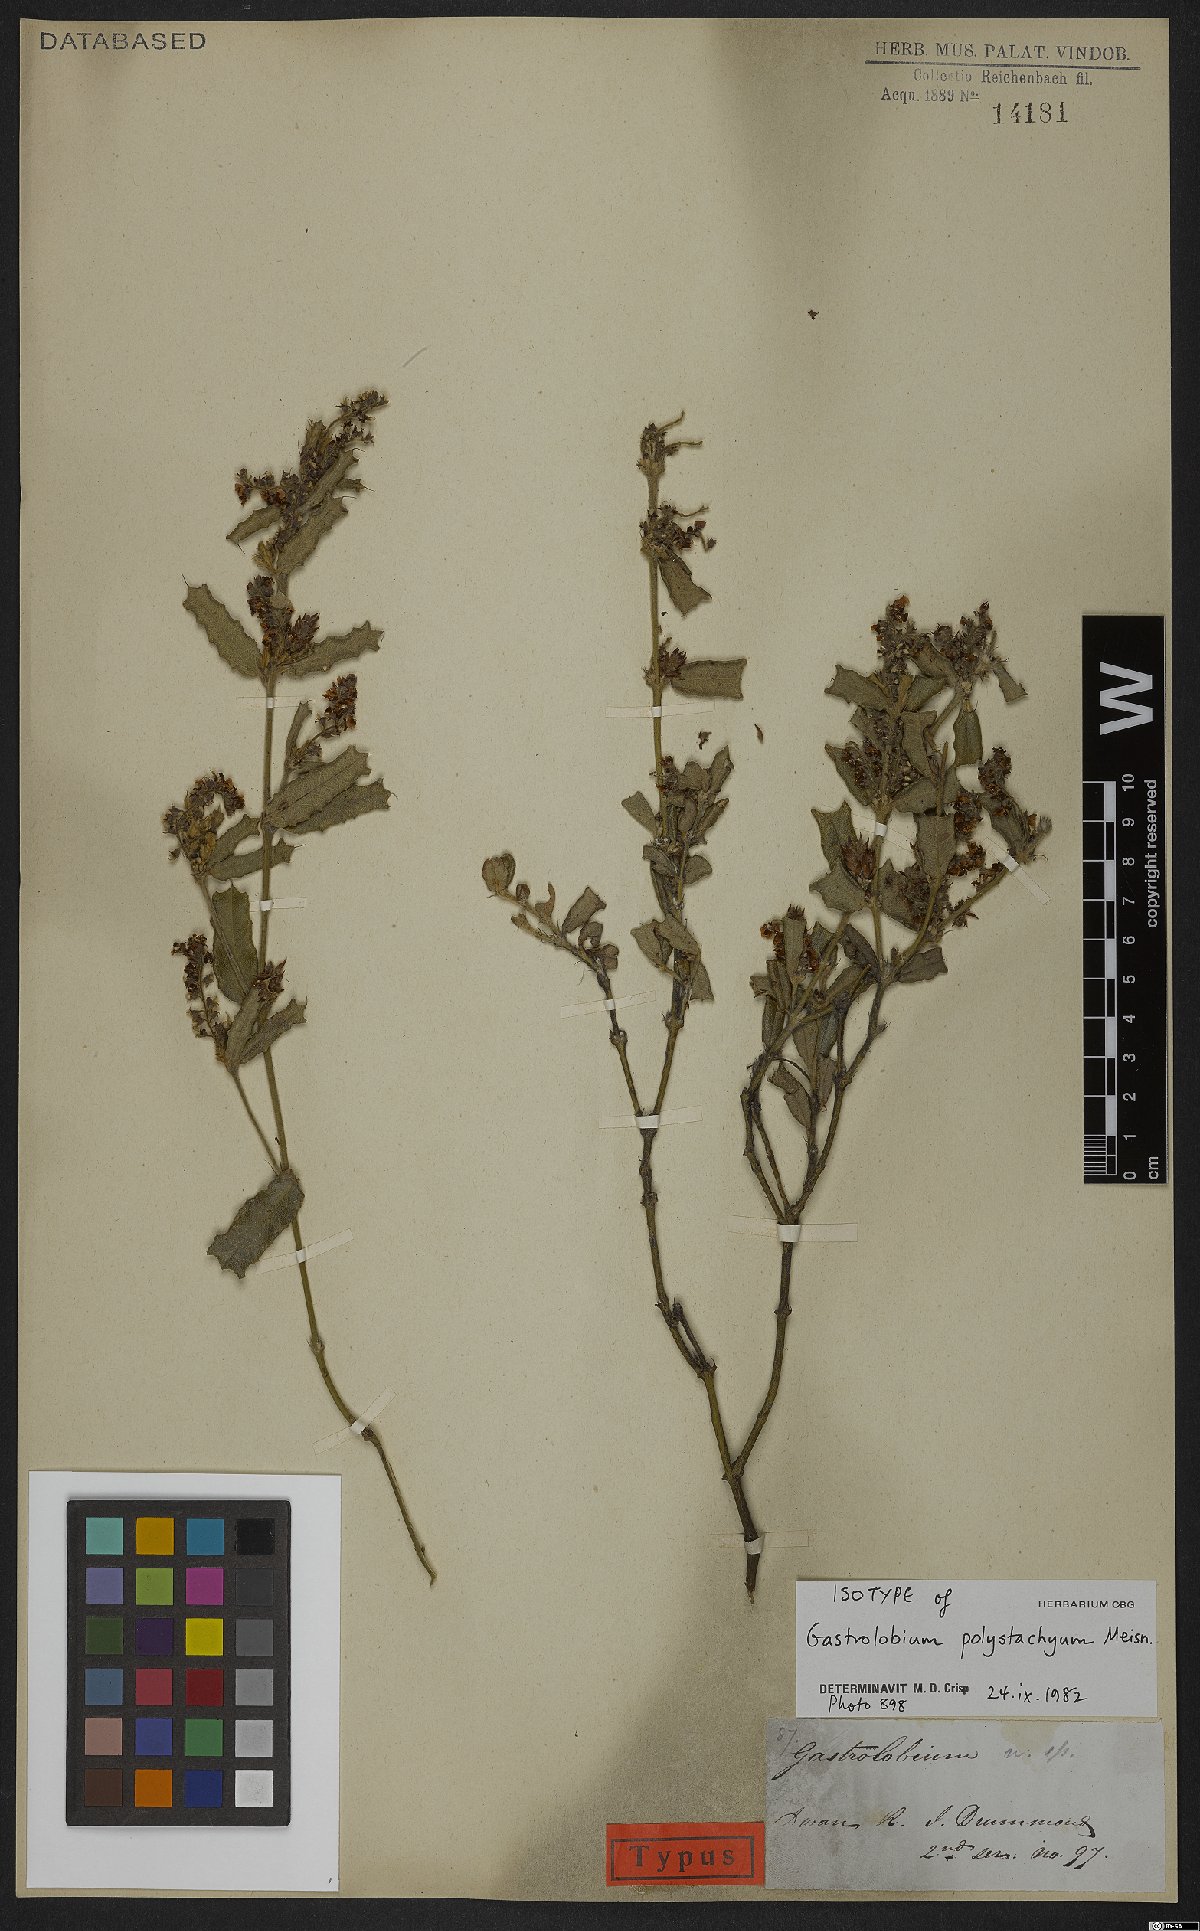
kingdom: Plantae
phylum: Tracheophyta
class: Magnoliopsida
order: Fabales
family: Fabaceae
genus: Gastrolobium
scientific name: Gastrolobium polystachyum
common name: Hill river poison
